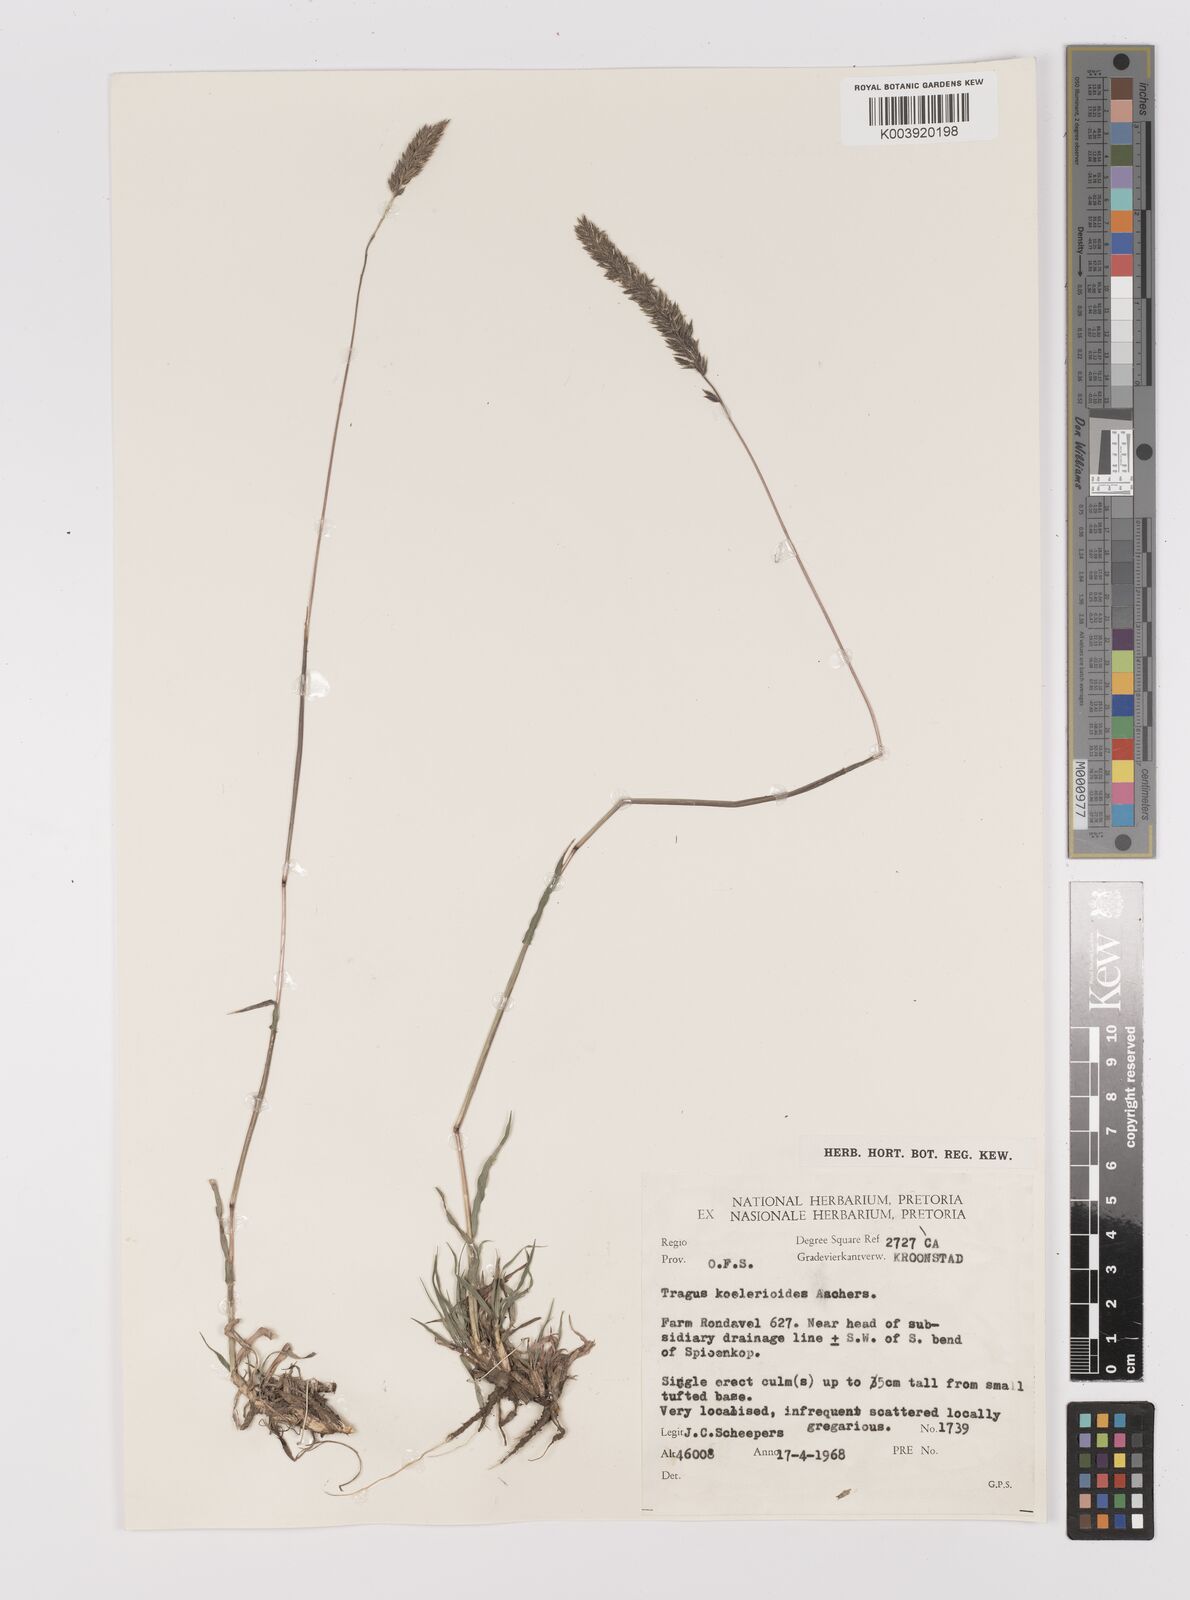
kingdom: Plantae
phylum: Tracheophyta
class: Liliopsida
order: Poales
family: Poaceae
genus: Tragus
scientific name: Tragus koelerioides
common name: Creeping carrot-seed grass
